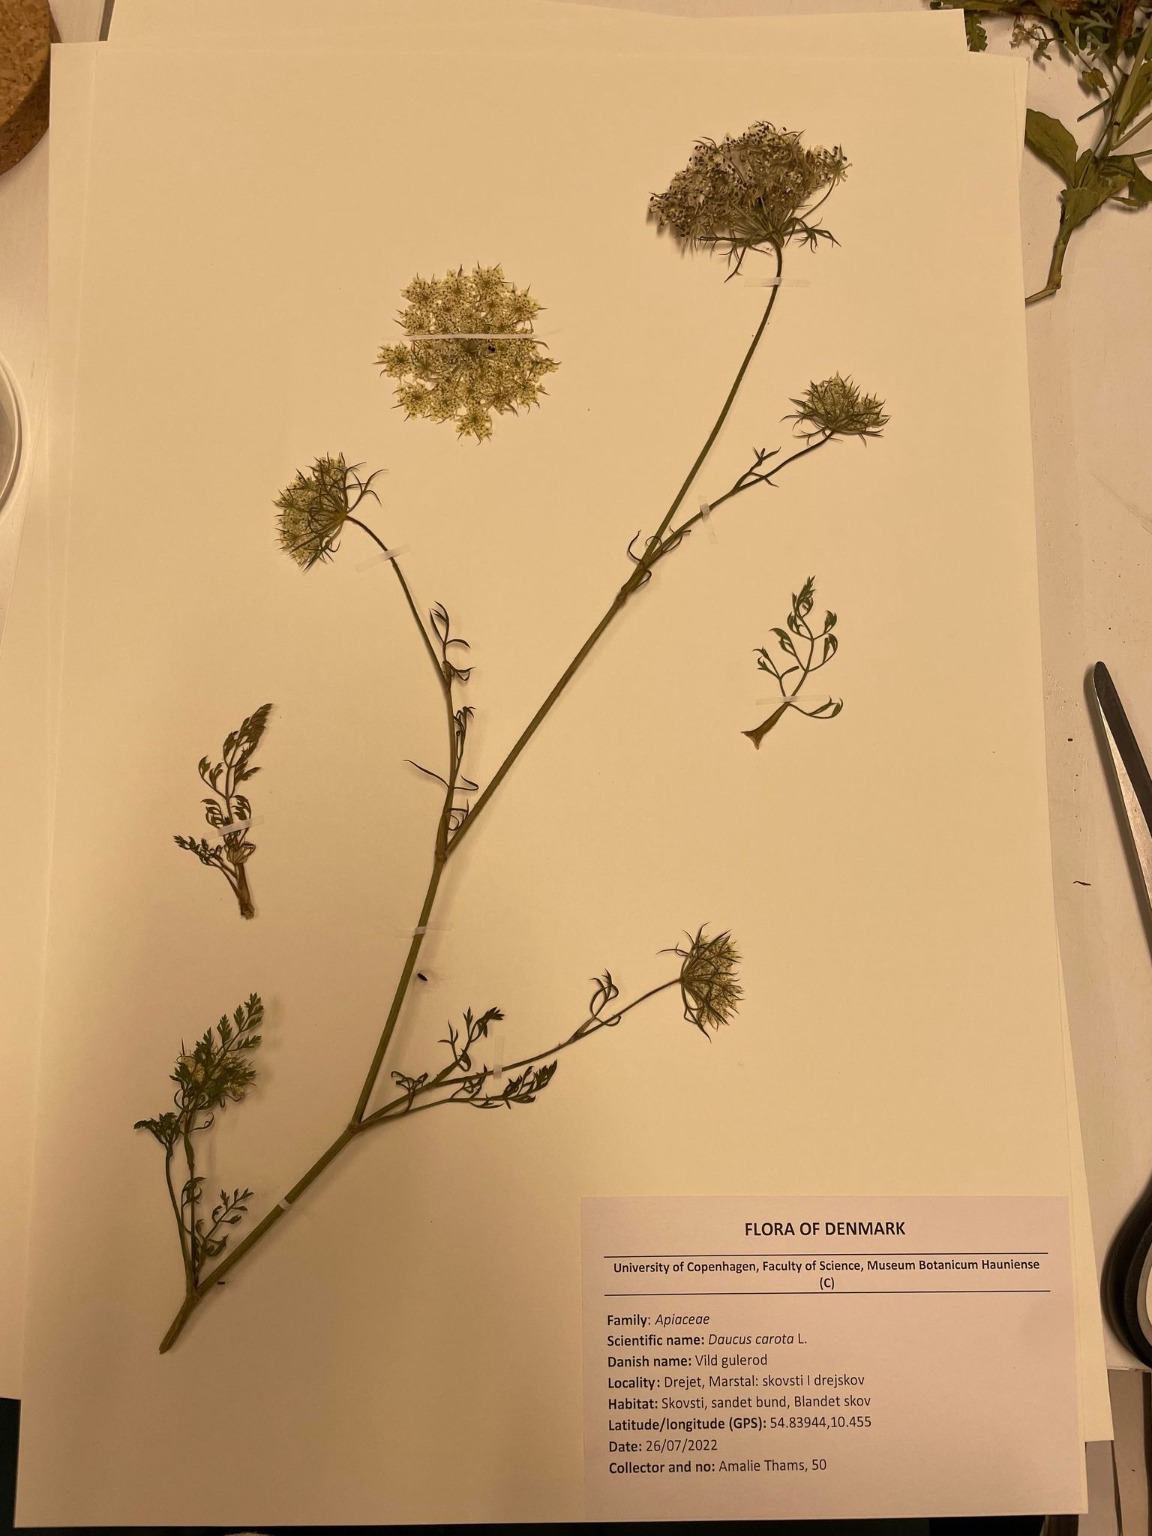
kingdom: Plantae
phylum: Tracheophyta
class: Magnoliopsida
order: Apiales
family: Apiaceae
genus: Daucus
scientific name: Daucus carota
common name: Gulerod
